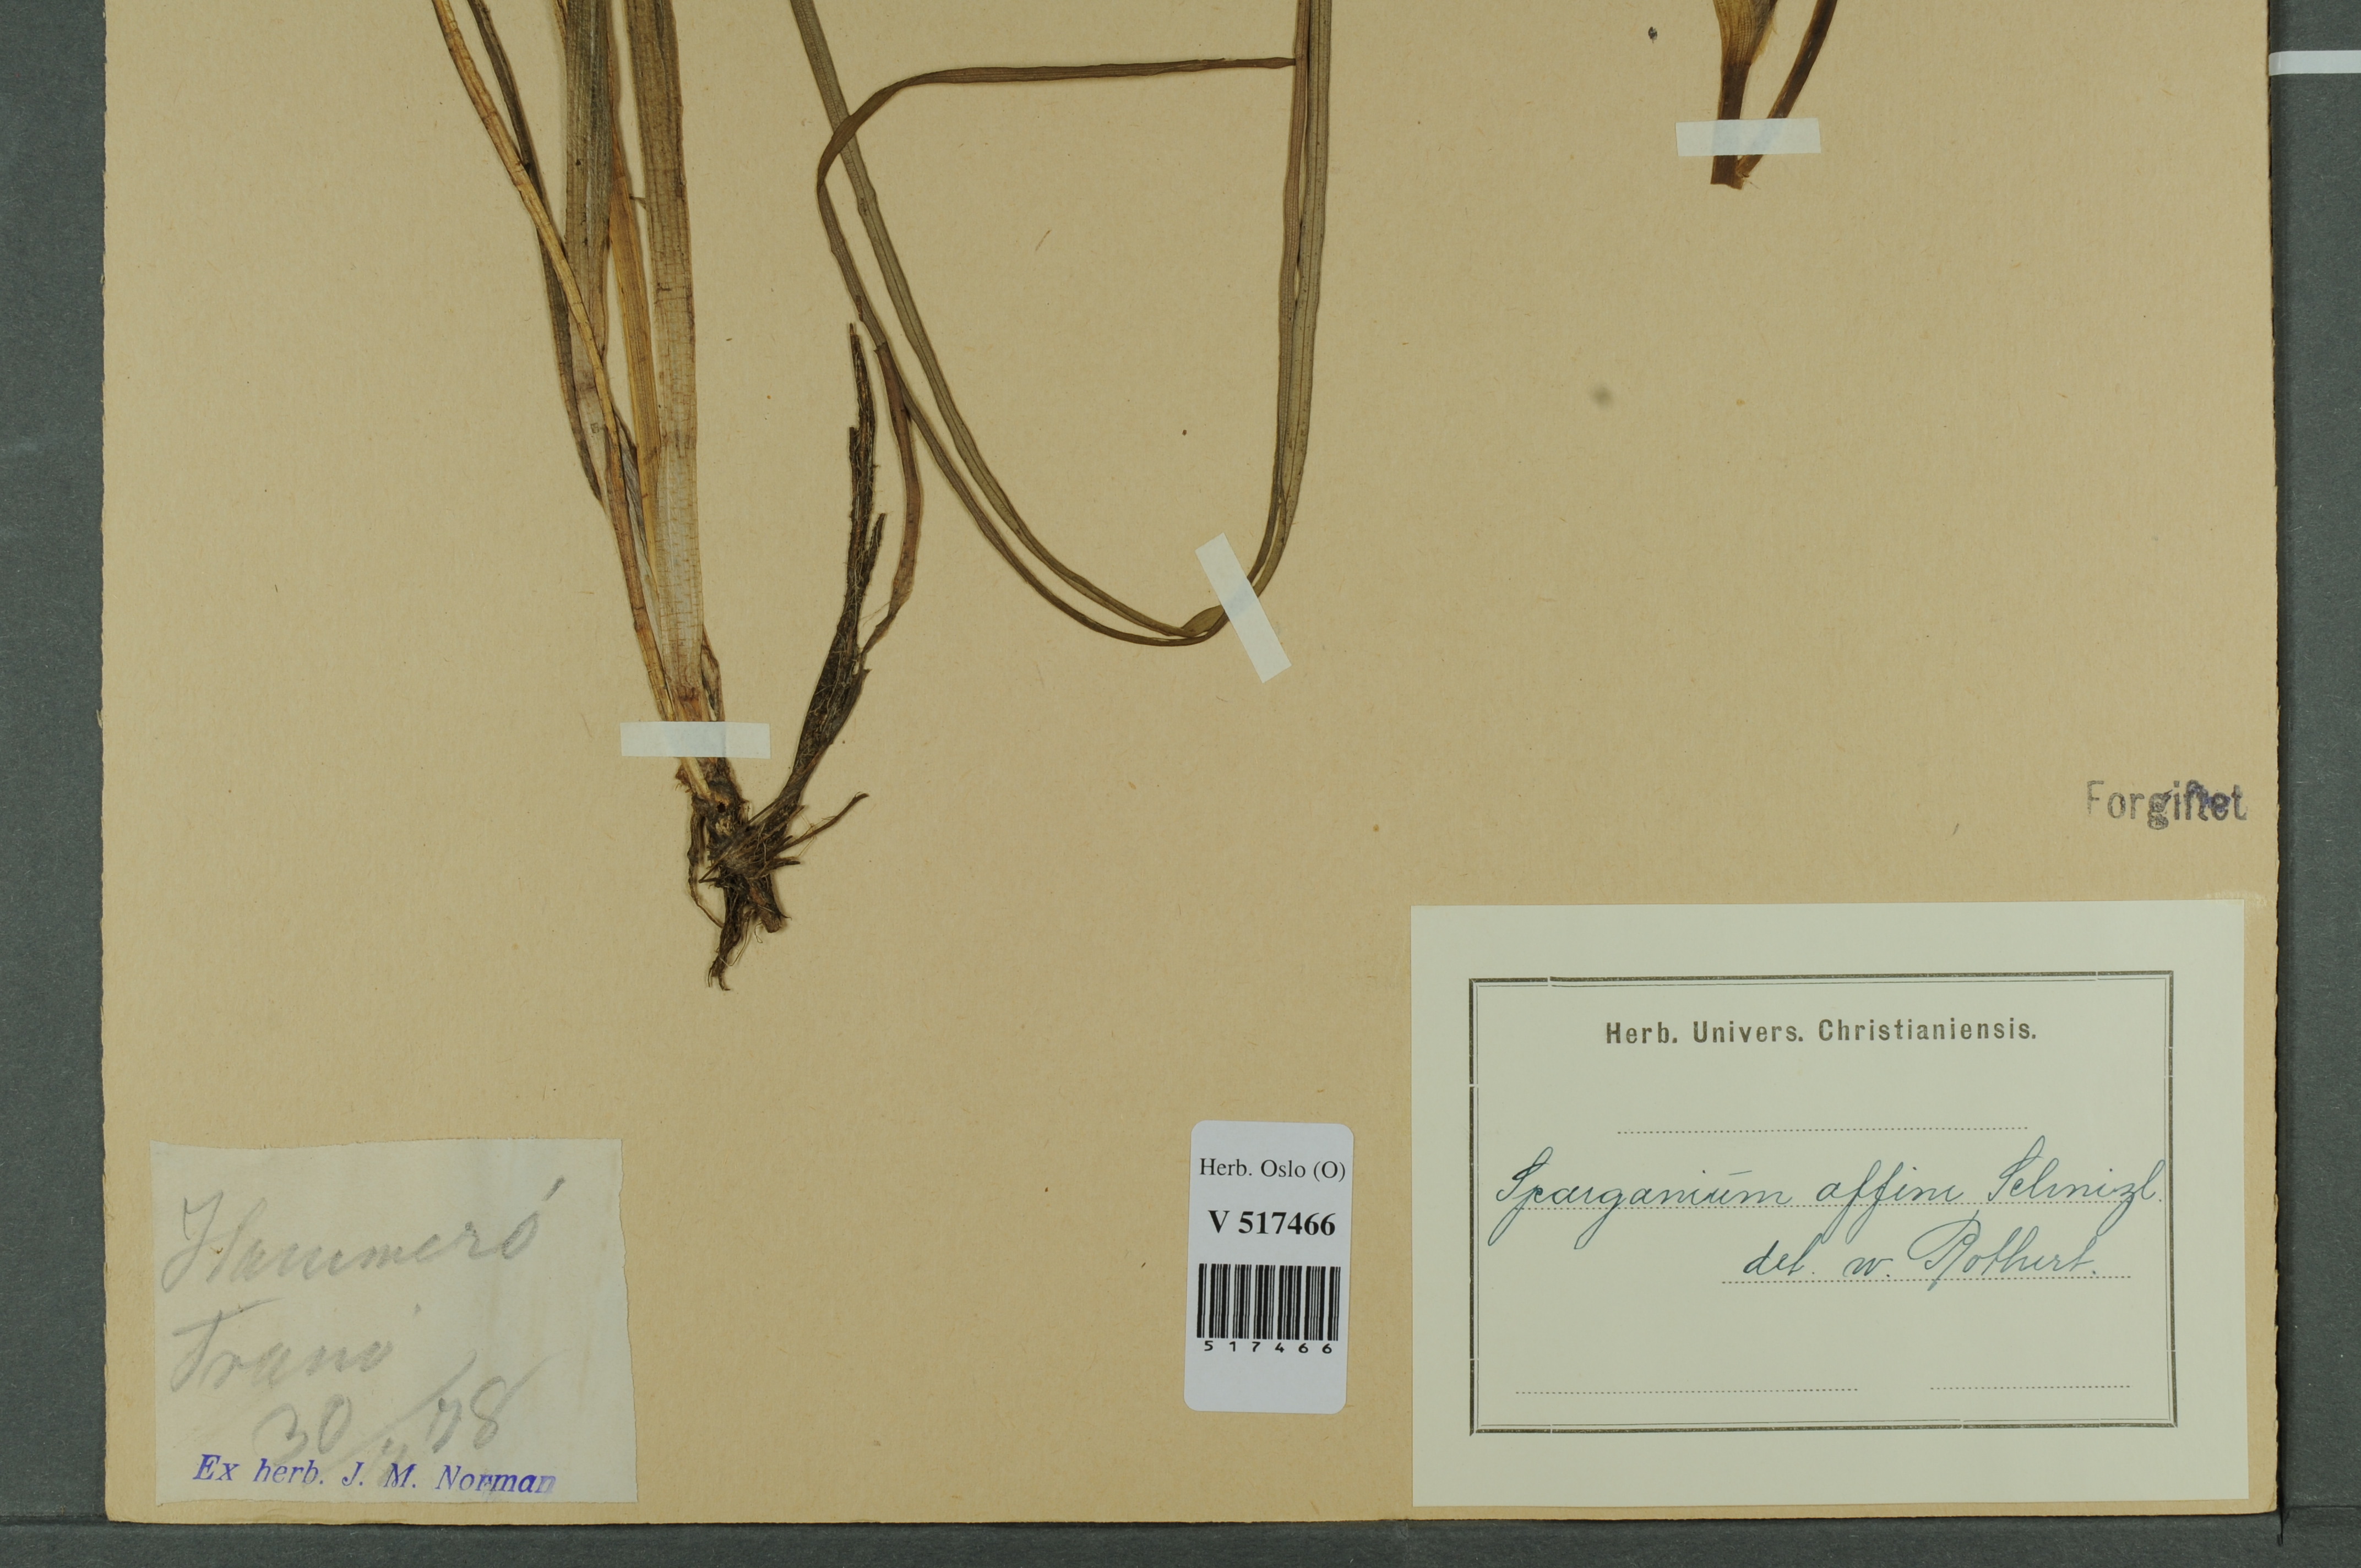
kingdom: Plantae
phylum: Tracheophyta
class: Liliopsida
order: Poales
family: Typhaceae
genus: Sparganium
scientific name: Sparganium angustifolium
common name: Floating bur-reed
